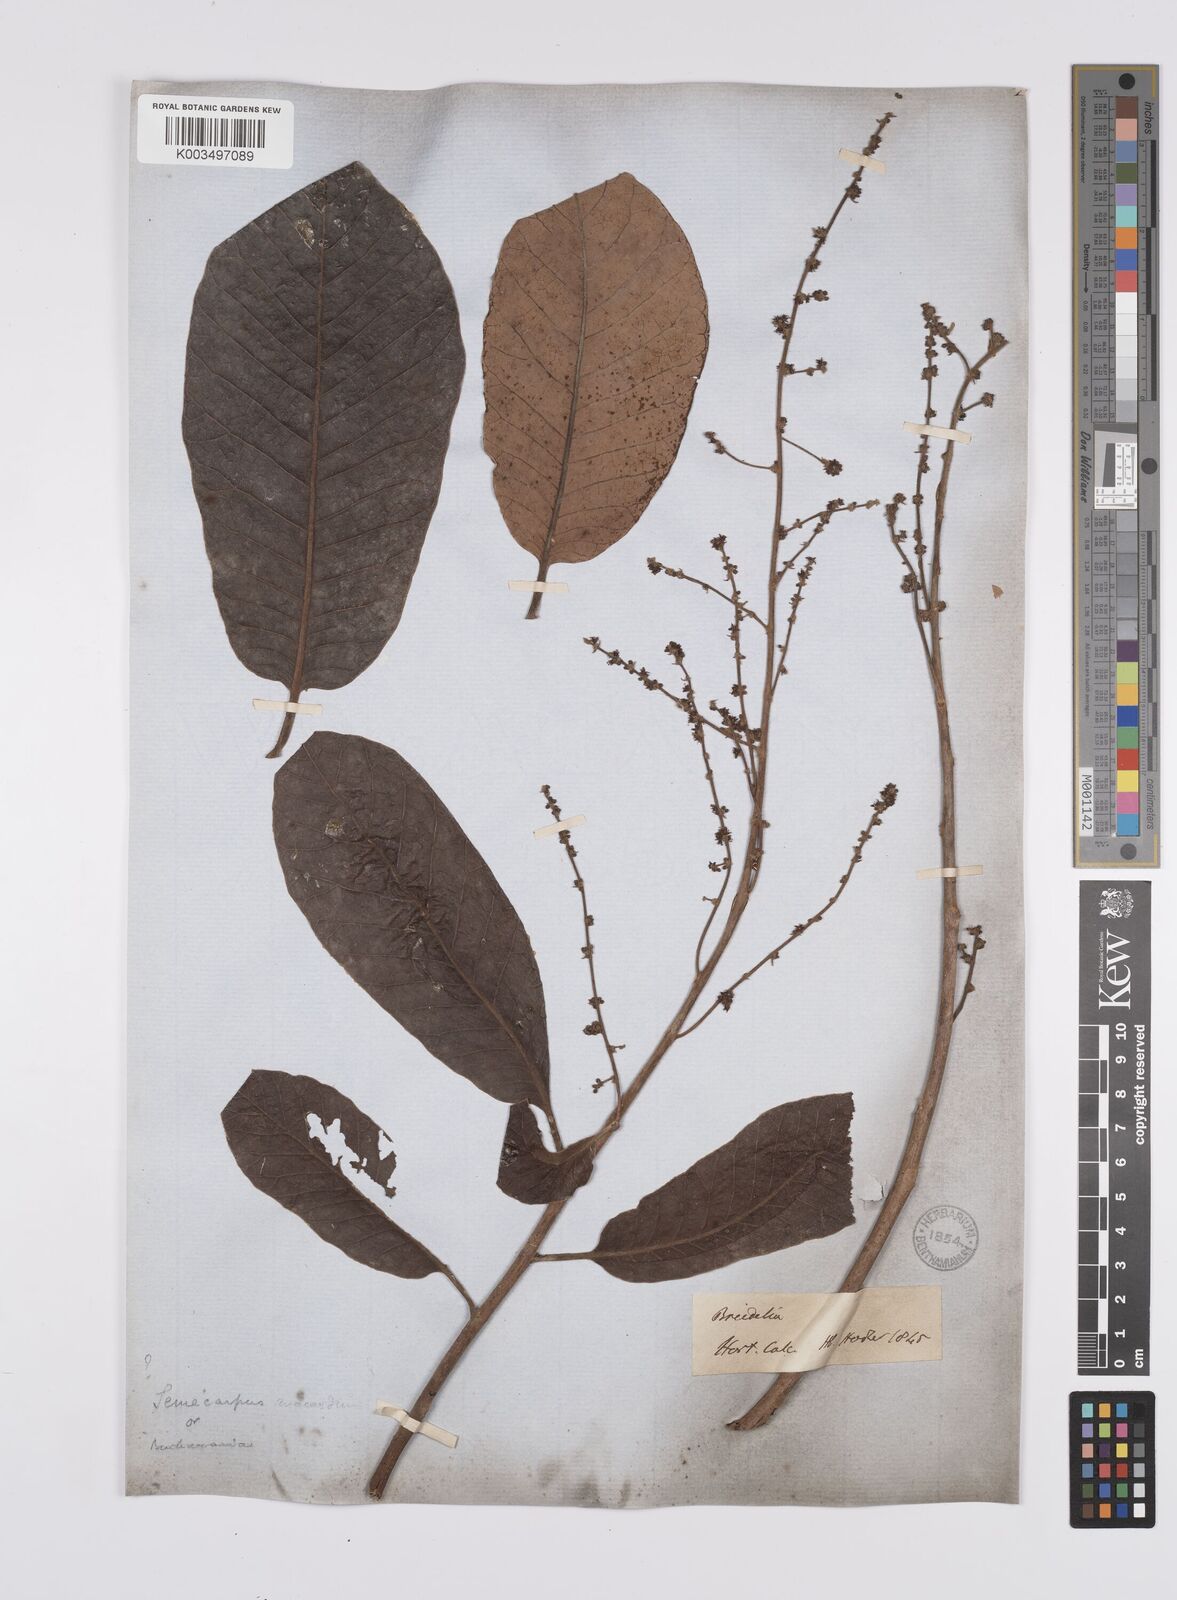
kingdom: Plantae
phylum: Tracheophyta
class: Magnoliopsida
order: Sapindales
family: Anacardiaceae
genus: Semecarpus
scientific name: Semecarpus anacardium
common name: Marking nut-tree
